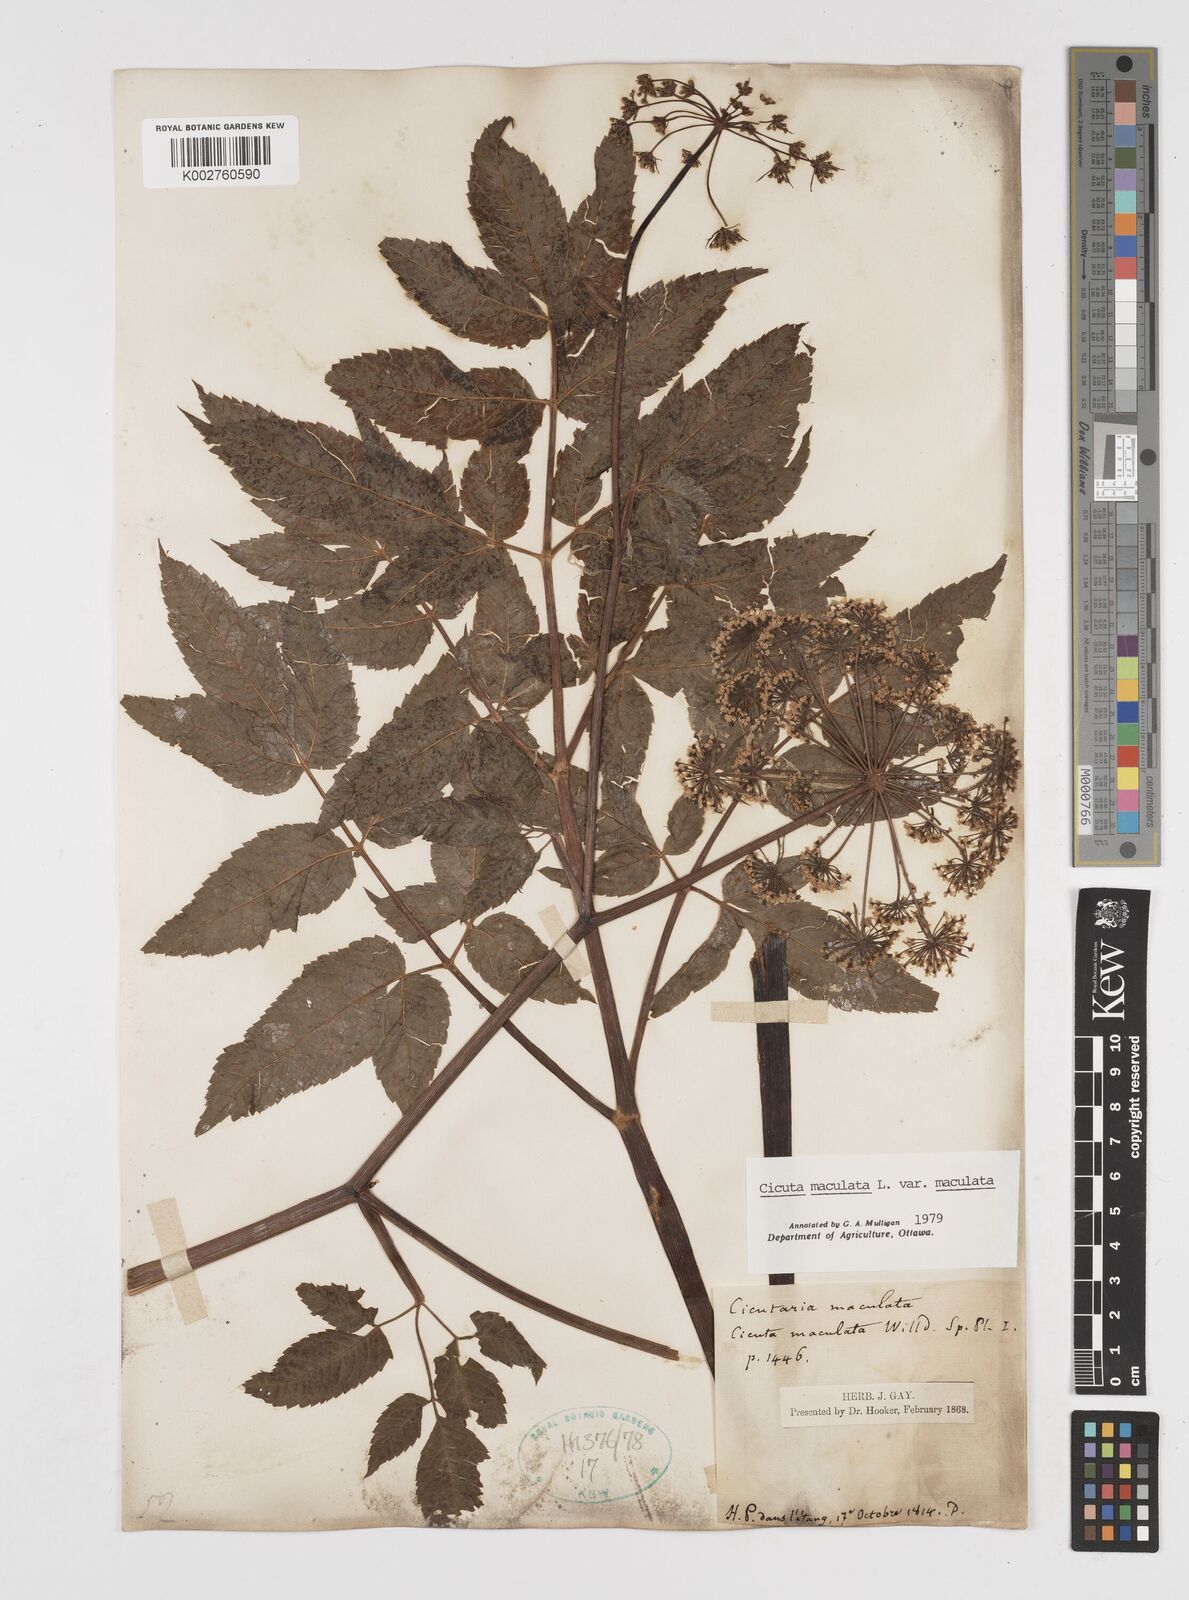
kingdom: Plantae
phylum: Tracheophyta
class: Magnoliopsida
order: Apiales
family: Apiaceae
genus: Cicuta
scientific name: Cicuta maculata
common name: Spotted cowbane
